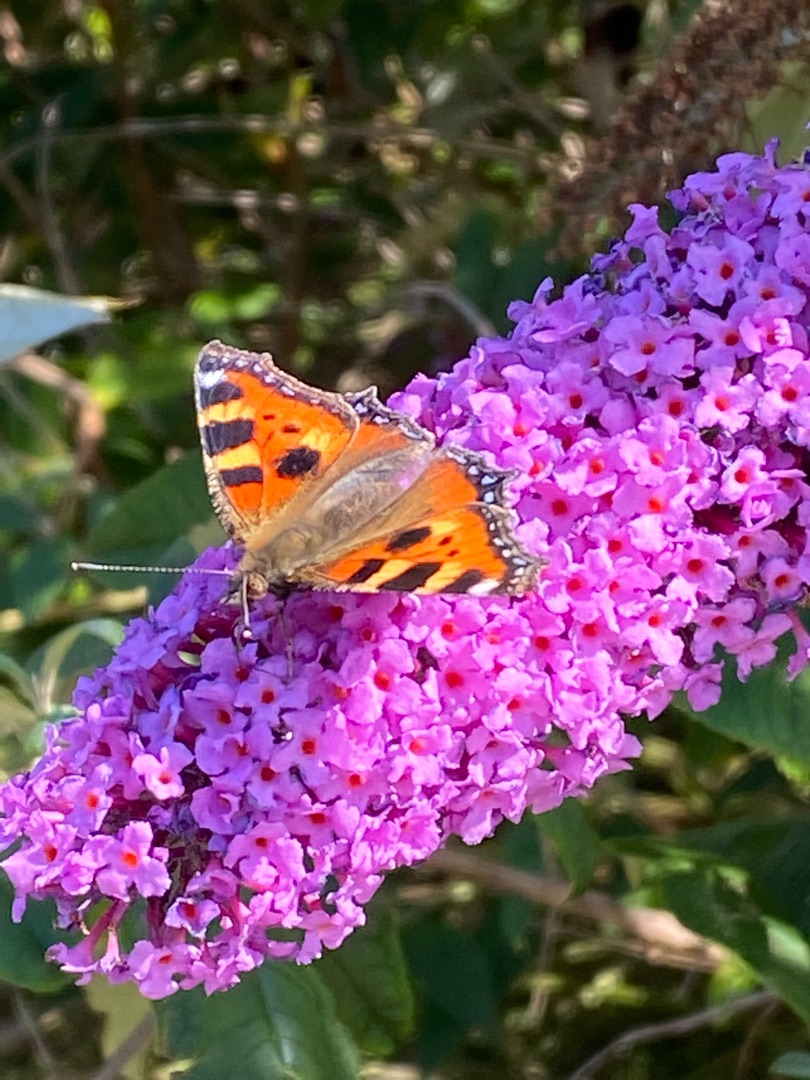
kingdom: Animalia
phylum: Arthropoda
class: Insecta
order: Lepidoptera
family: Nymphalidae
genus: Aglais
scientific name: Aglais urticae
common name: Nældens takvinge
